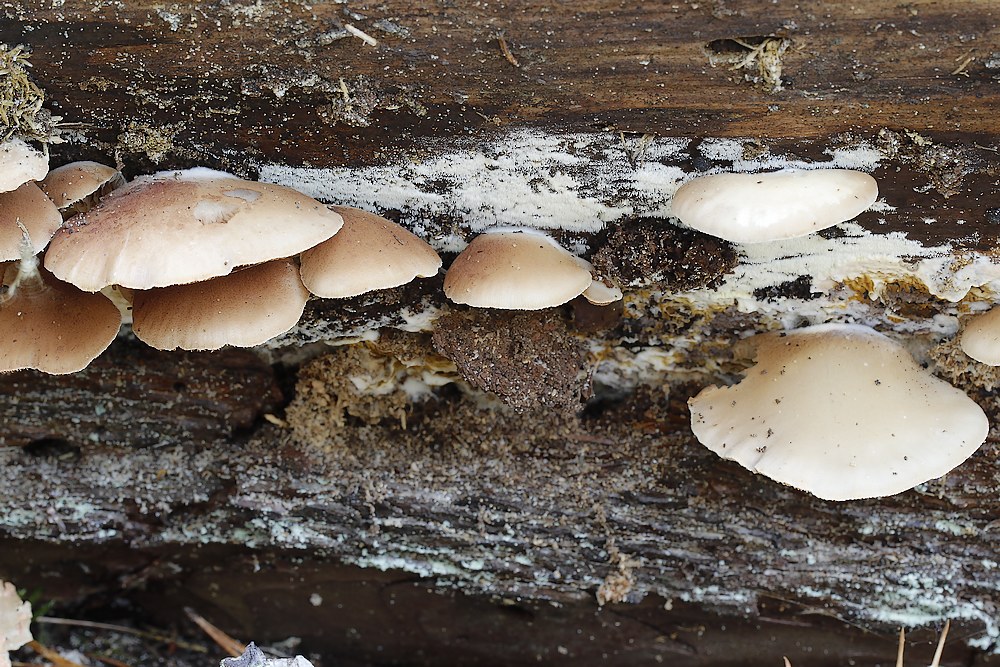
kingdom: Fungi
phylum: Basidiomycota
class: Agaricomycetes
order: Agaricales
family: Crepidotaceae
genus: Crepidotus
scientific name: Crepidotus applanatus
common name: tvefarvet muslingesvamp
